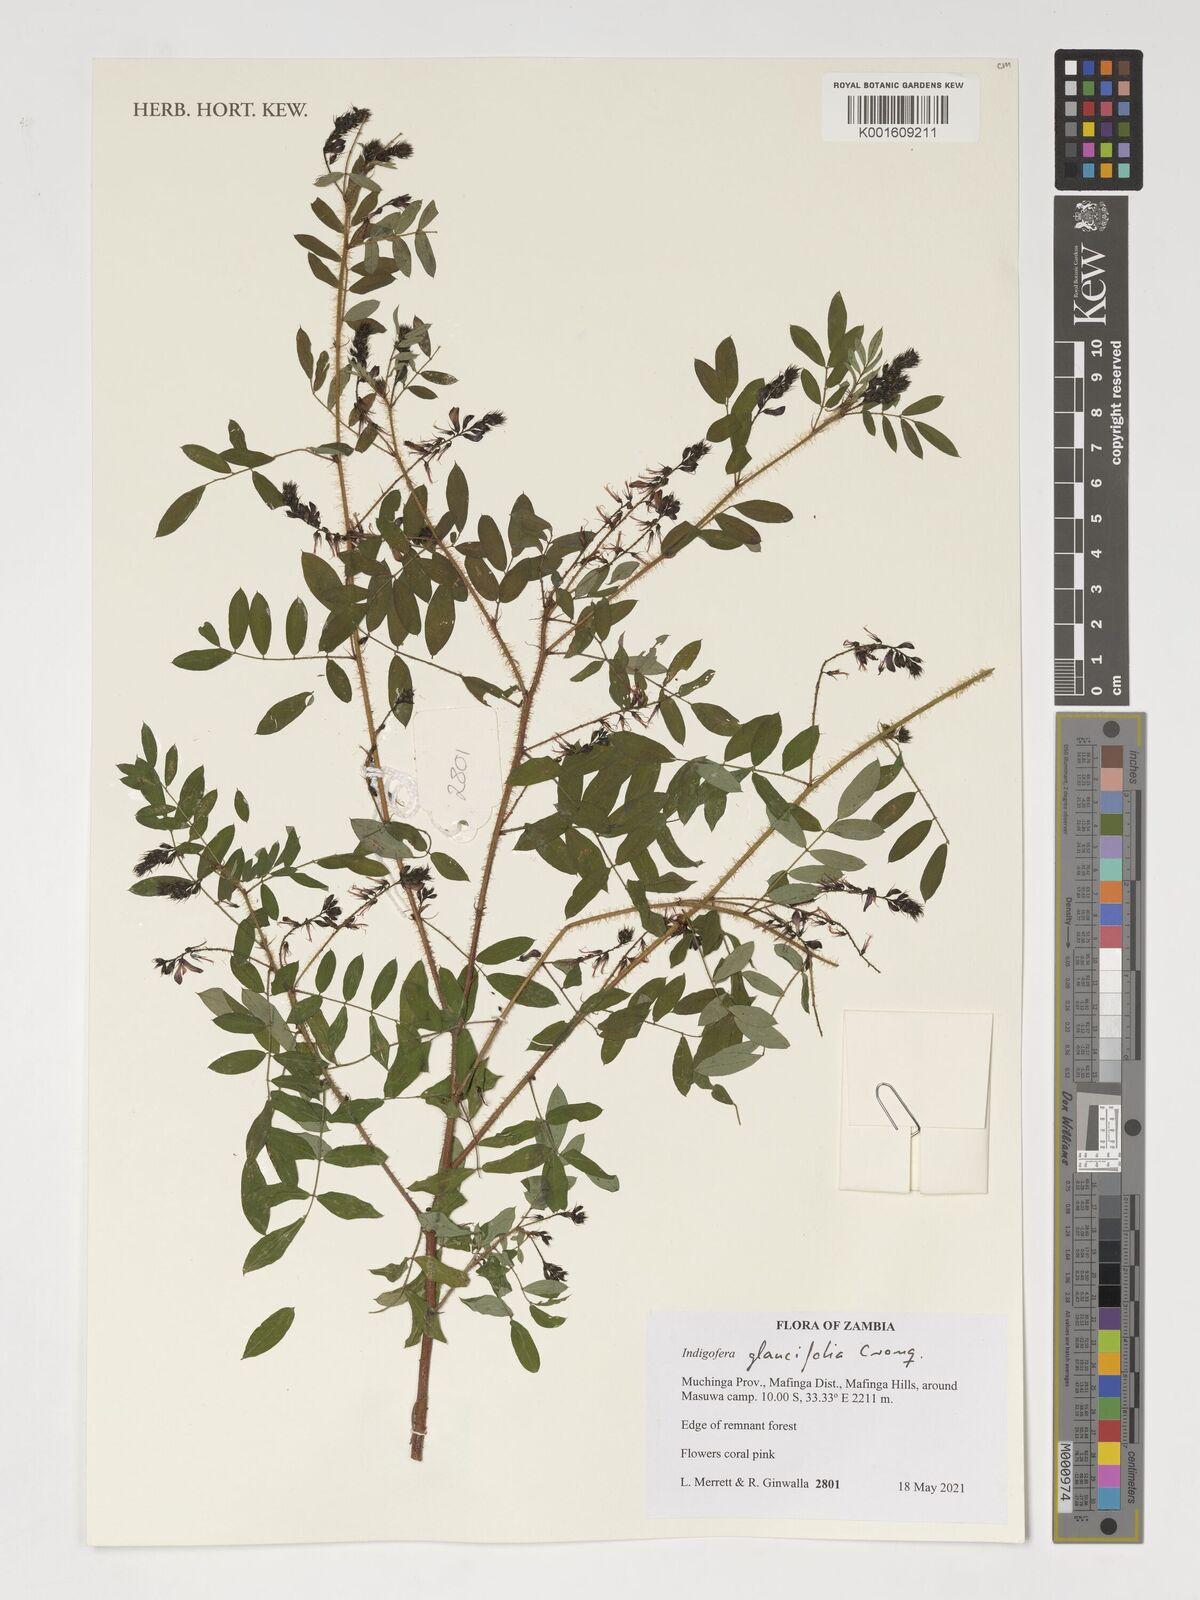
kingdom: Plantae
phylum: Tracheophyta
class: Magnoliopsida
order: Fabales
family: Fabaceae
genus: Indigofera
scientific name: Indigofera glaucifolia
